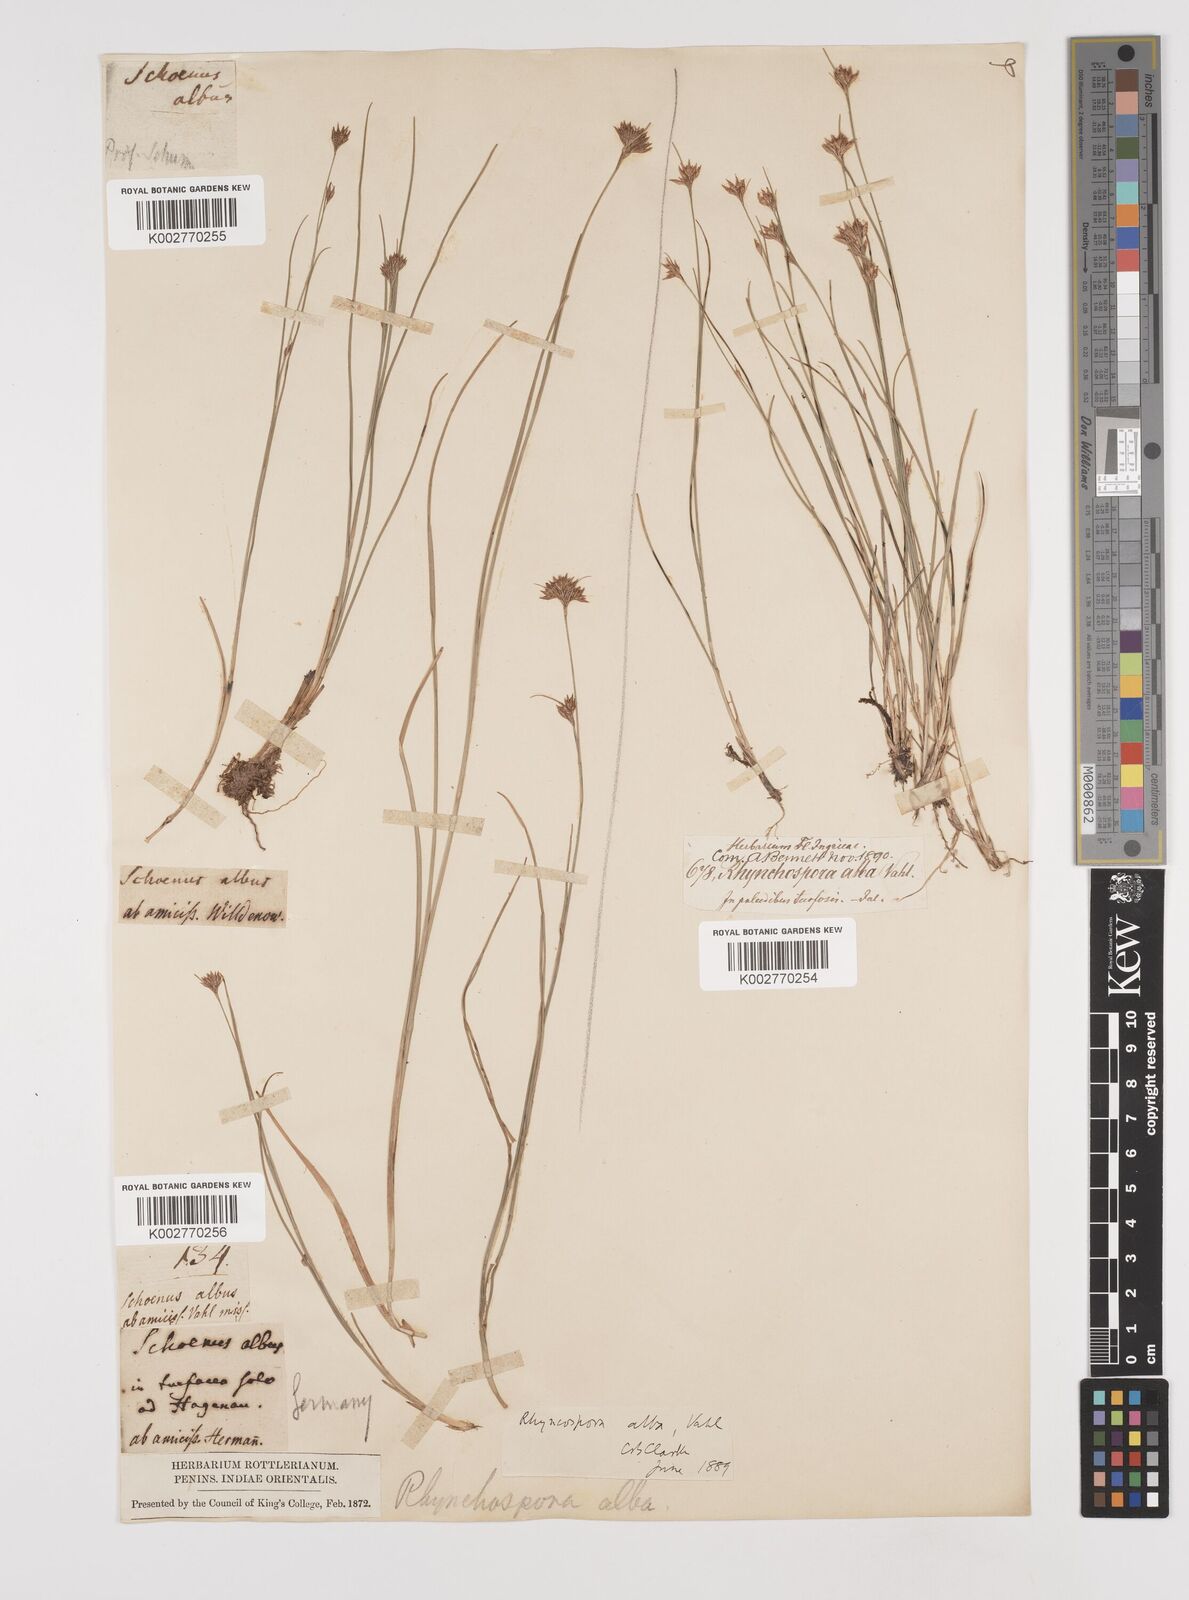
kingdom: Plantae
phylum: Tracheophyta
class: Liliopsida
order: Poales
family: Cyperaceae
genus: Rhynchospora
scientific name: Rhynchospora alba
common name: White beak-sedge
